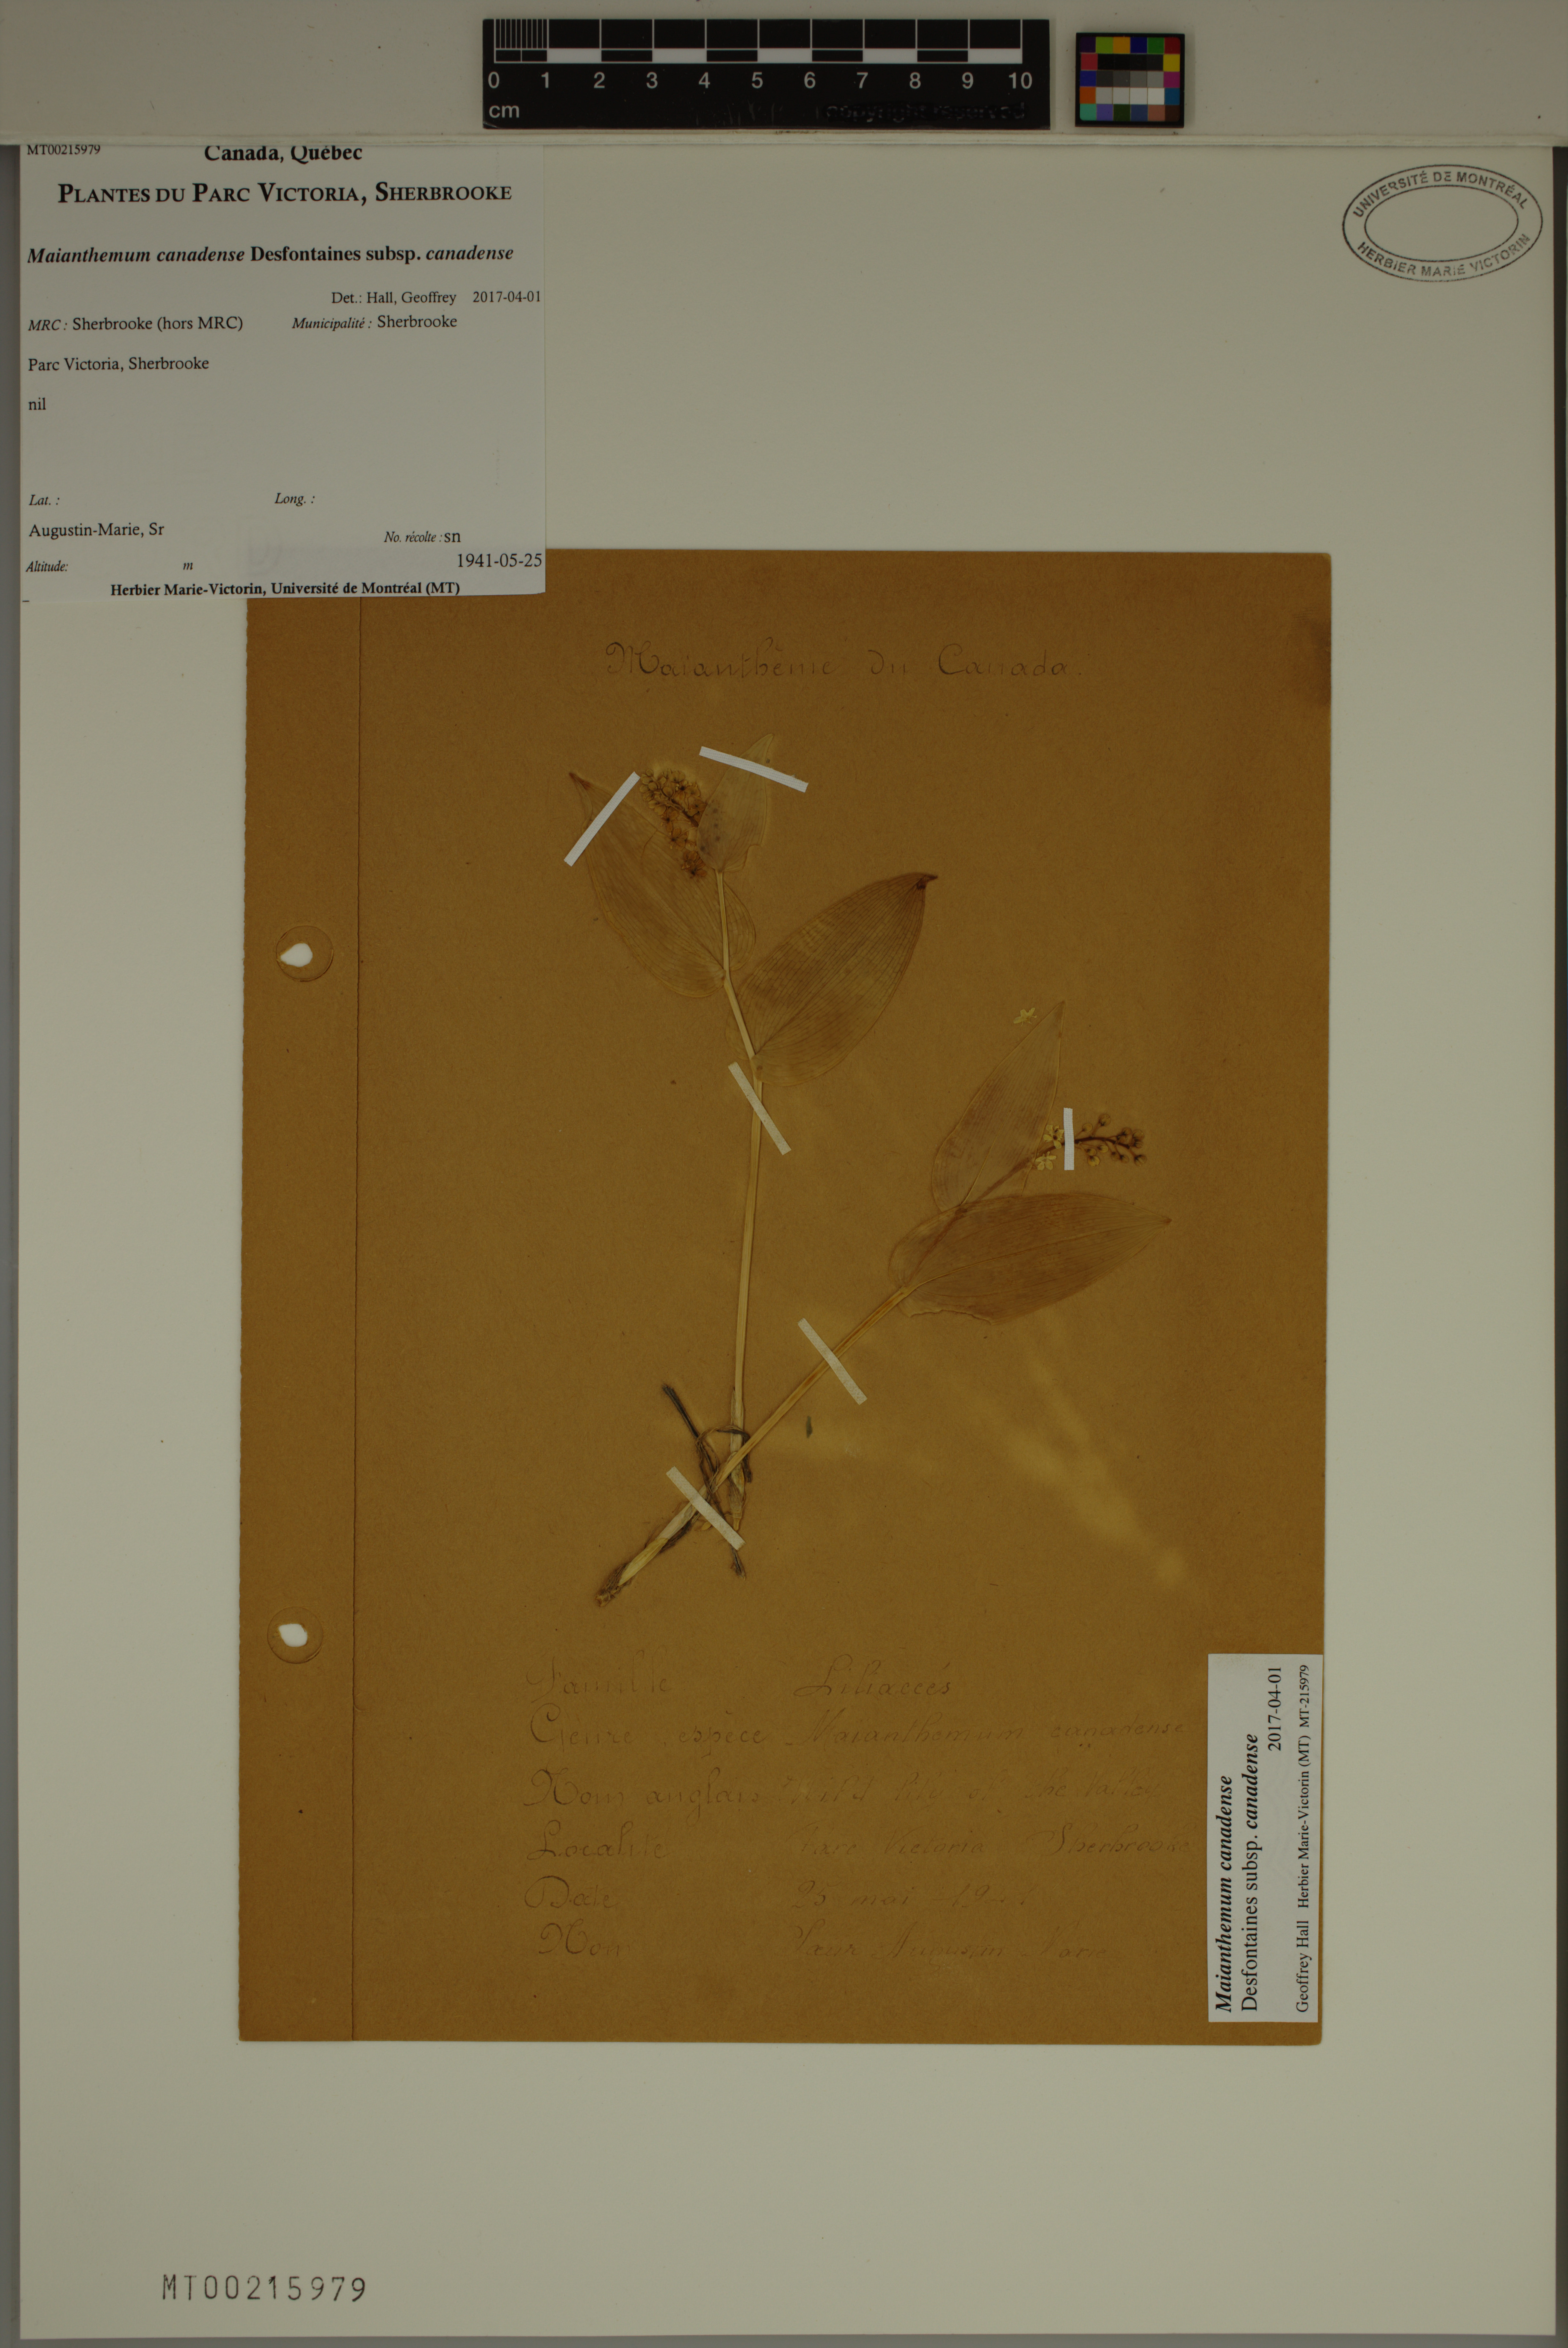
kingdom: Plantae
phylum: Tracheophyta
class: Liliopsida
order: Asparagales
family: Asparagaceae
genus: Maianthemum
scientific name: Maianthemum canadense
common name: False lily-of-the-valley
